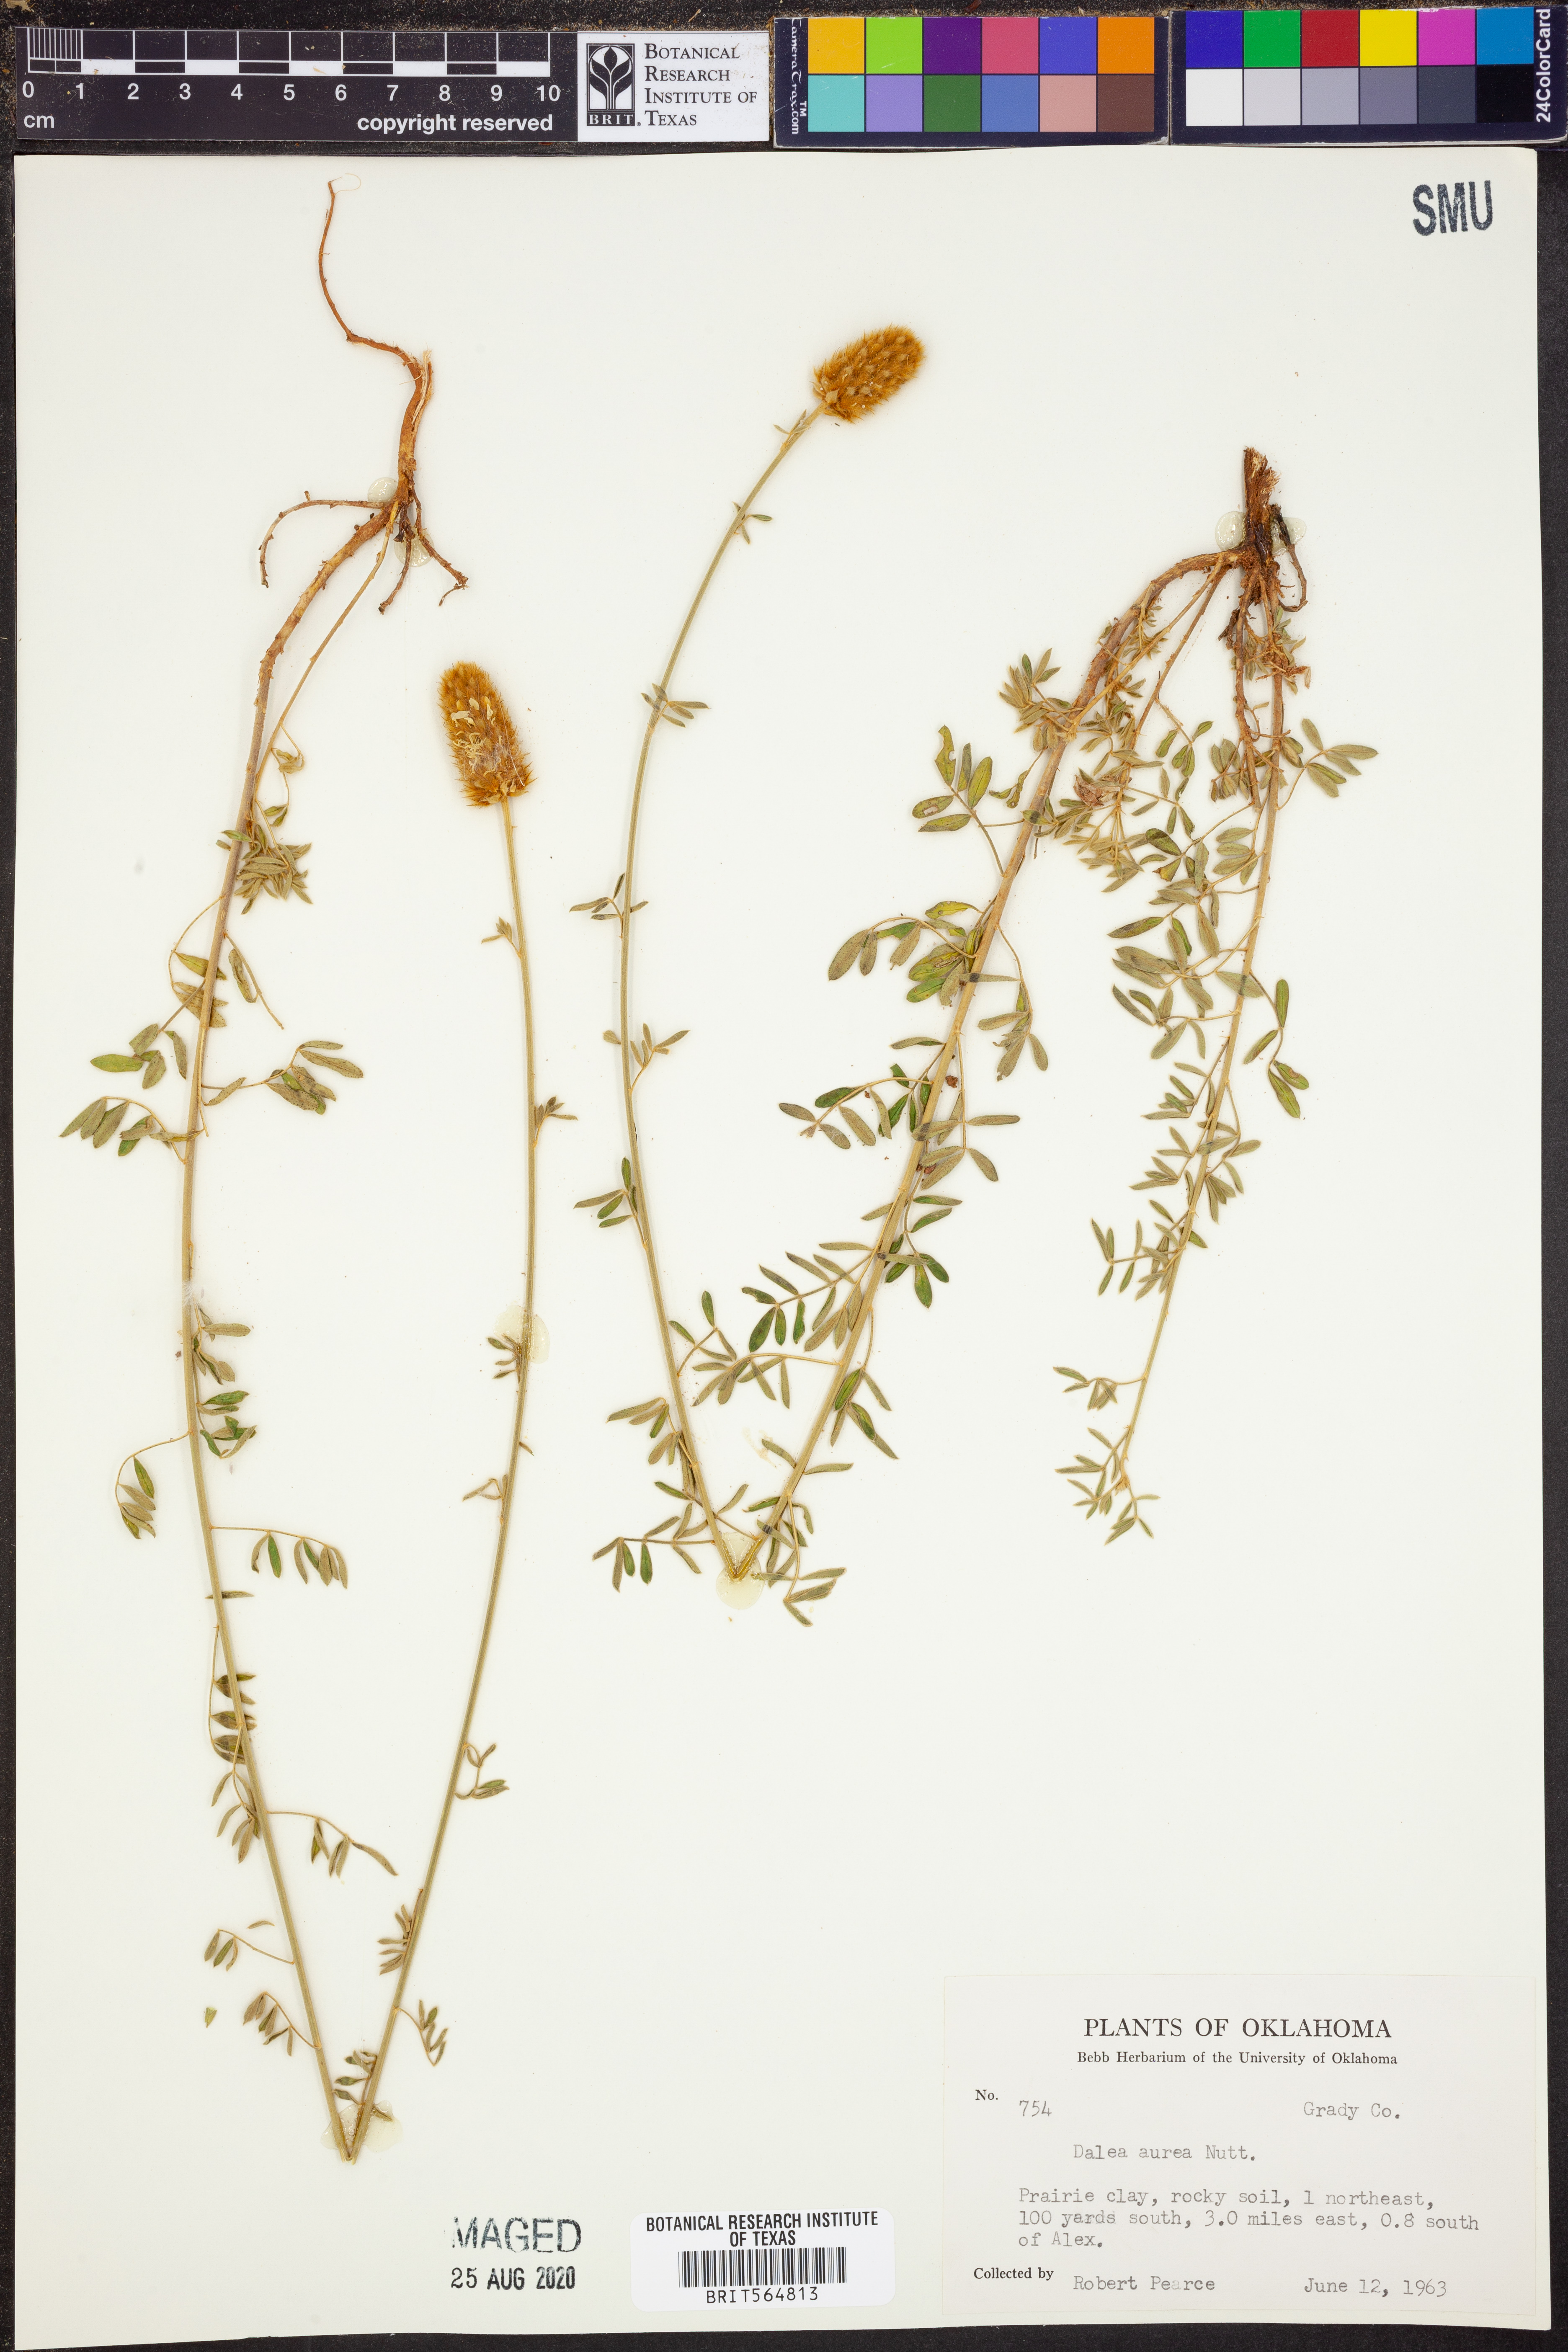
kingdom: Plantae
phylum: Tracheophyta
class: Magnoliopsida
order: Fabales
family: Fabaceae
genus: Dalea
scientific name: Dalea aurea
